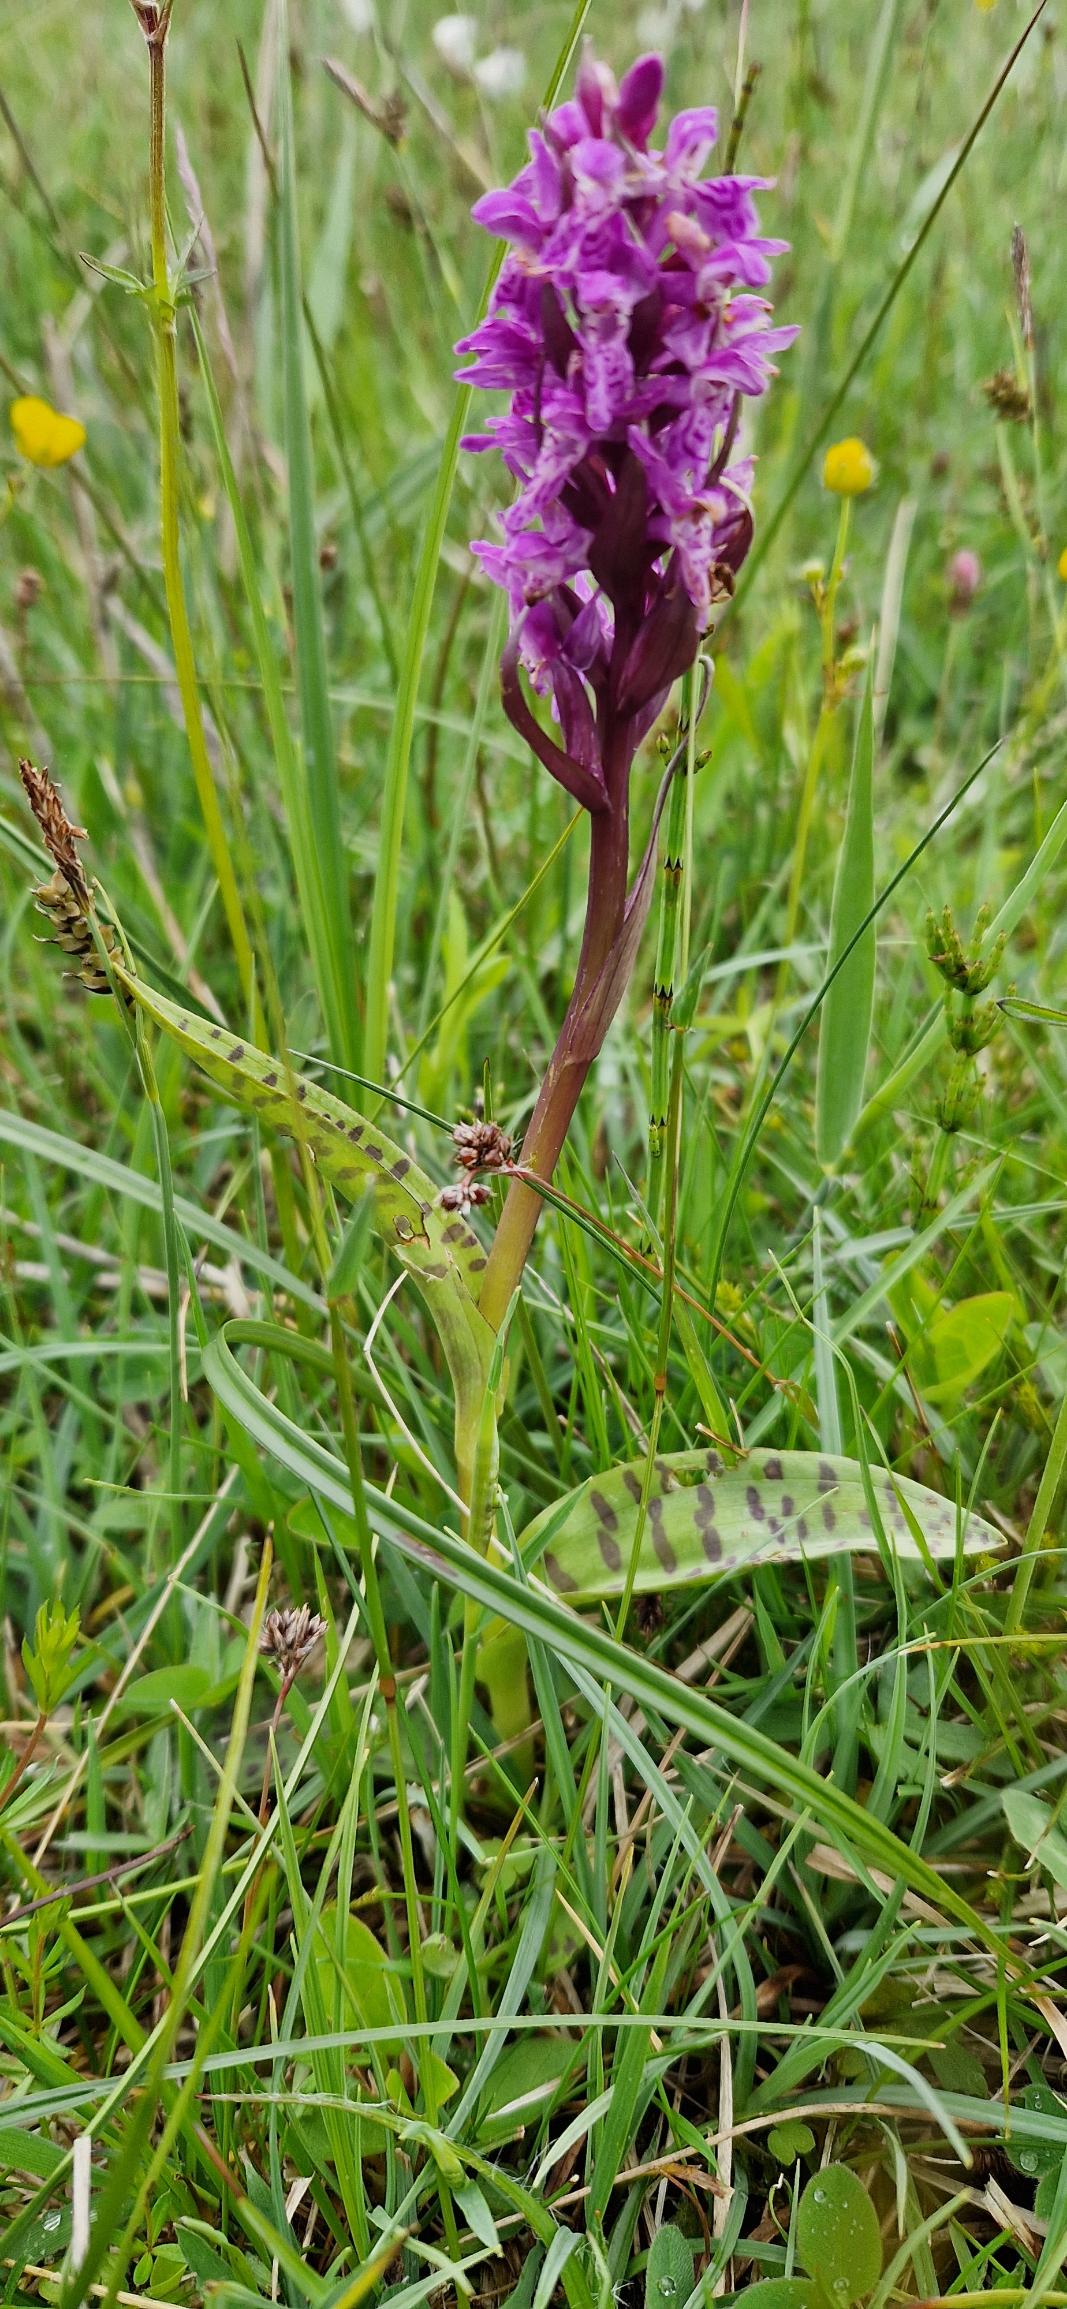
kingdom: Plantae
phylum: Tracheophyta
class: Liliopsida
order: Asparagales
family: Orchidaceae
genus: Dactylorhiza
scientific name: Dactylorhiza majalis
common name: Maj-gøgeurt
